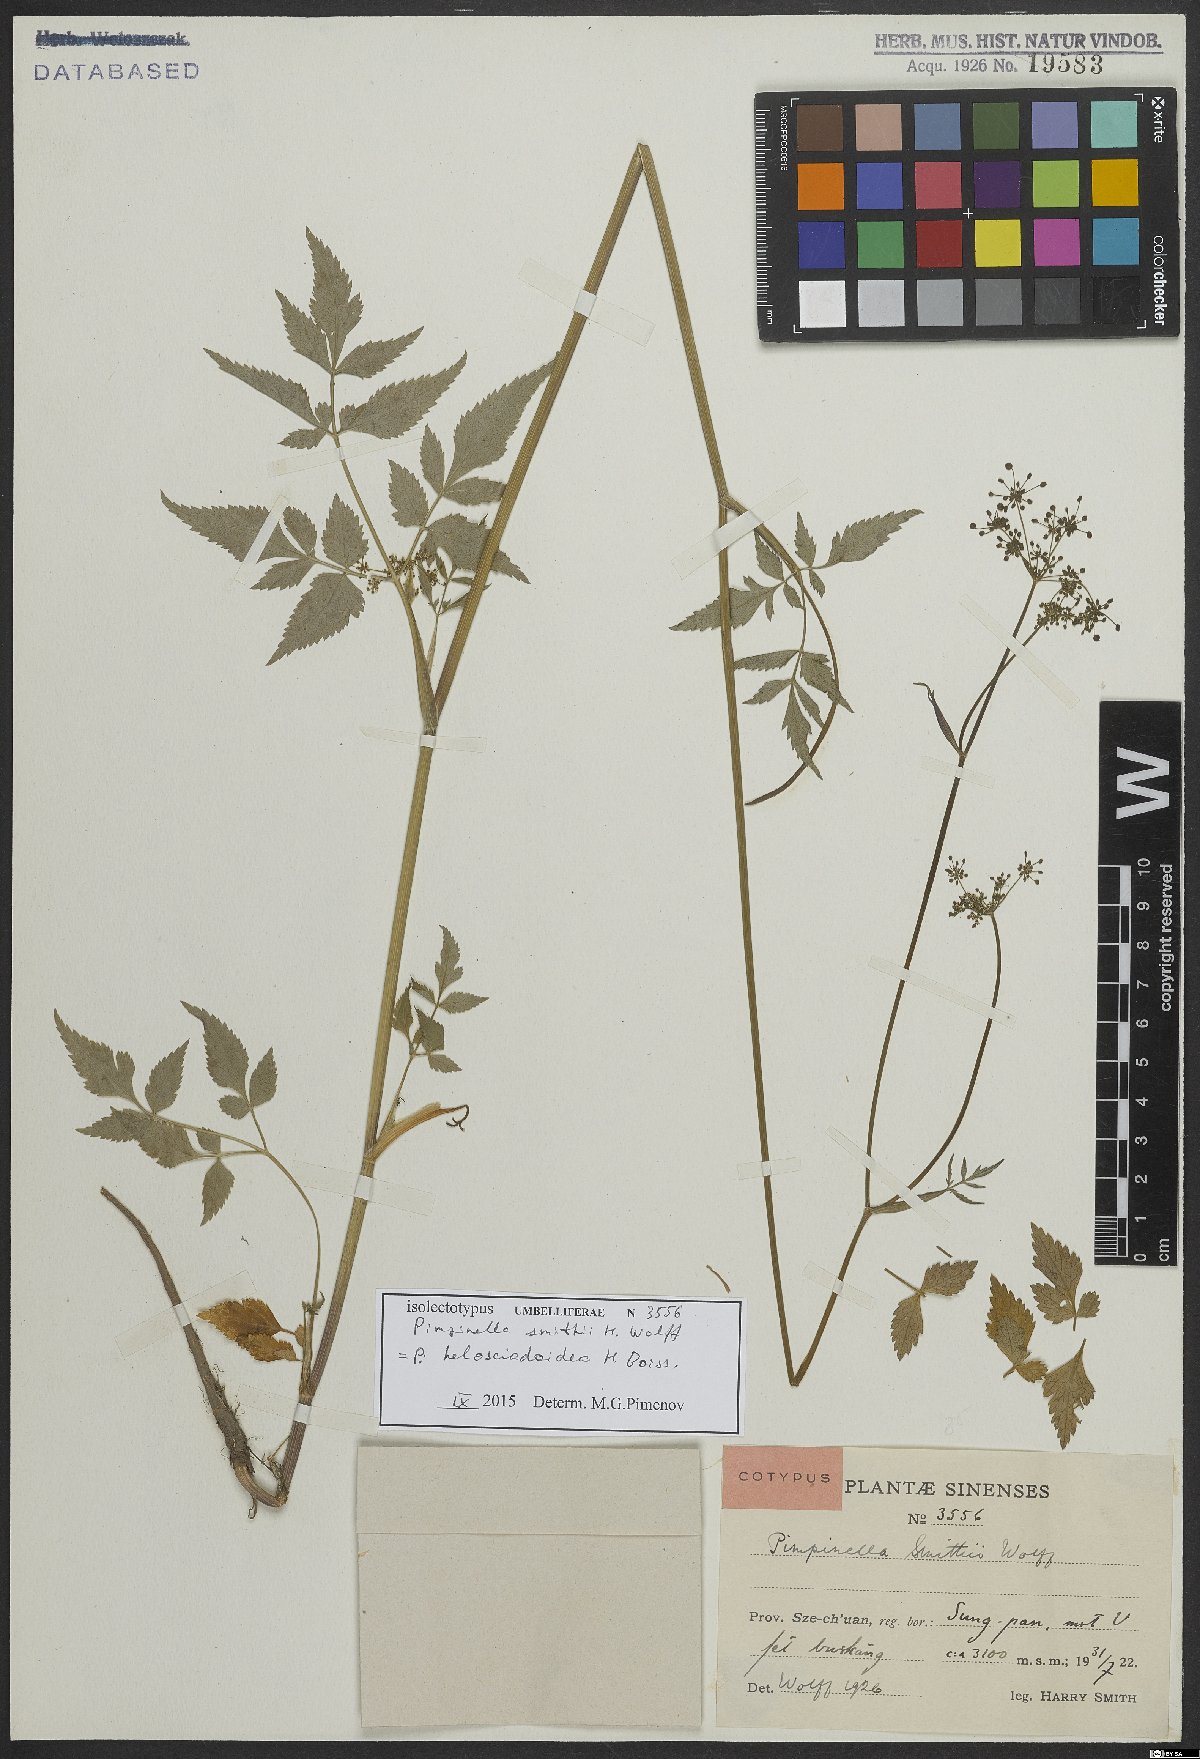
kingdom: Plantae
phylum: Tracheophyta
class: Magnoliopsida
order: Apiales
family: Apiaceae
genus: Pimpinella
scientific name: Pimpinella helosciadoidea
